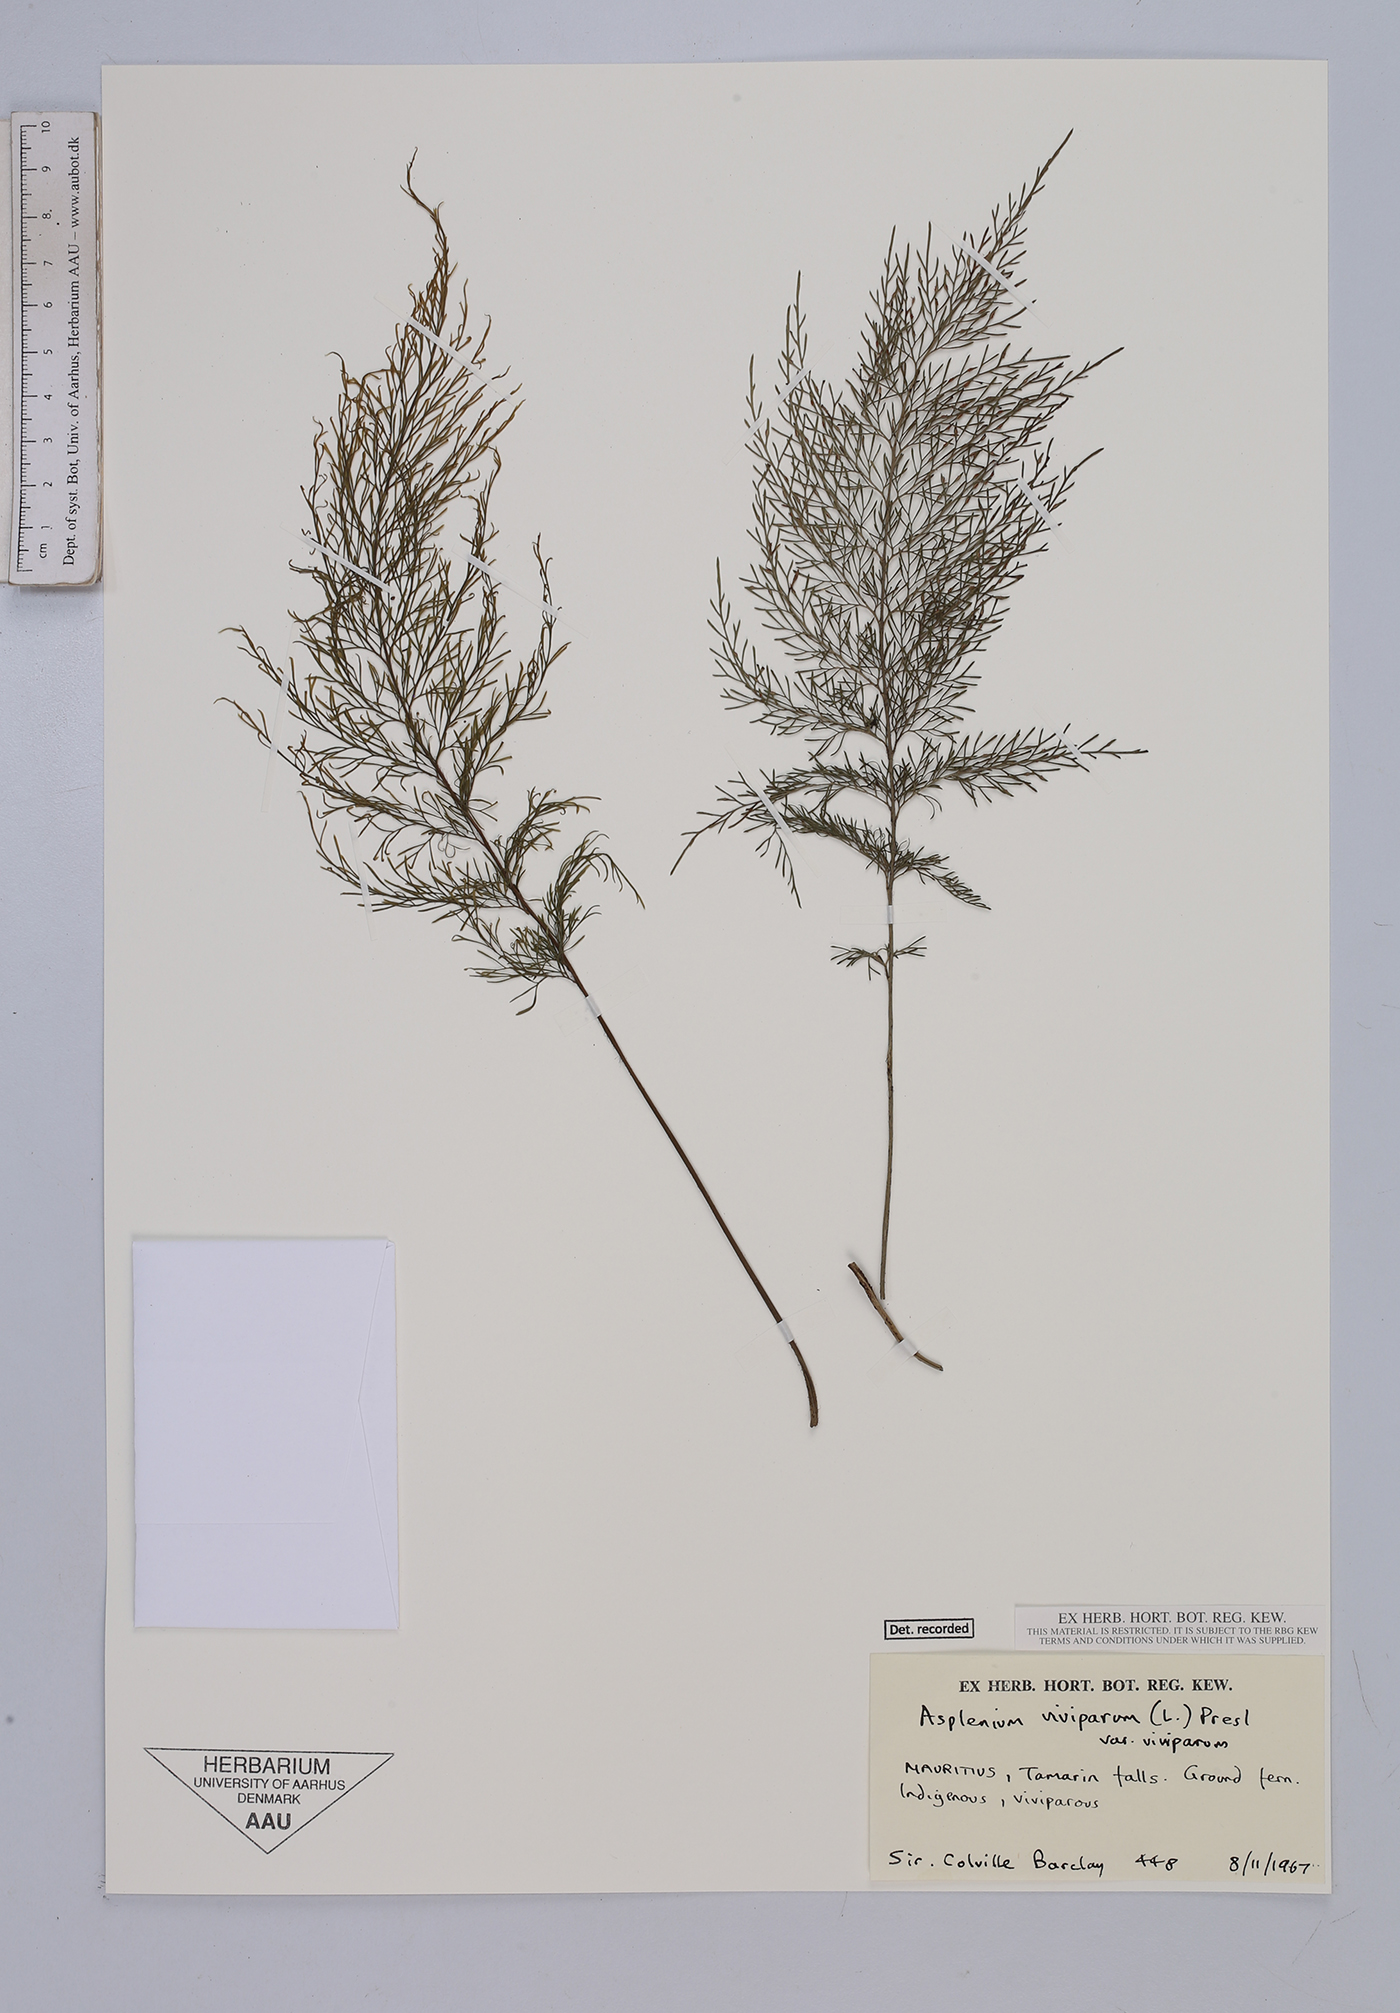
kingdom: Plantae
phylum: Tracheophyta
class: Polypodiopsida
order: Polypodiales
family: Aspleniaceae
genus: Asplenium
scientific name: Asplenium daucifolium
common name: Mauritius spleenwort
